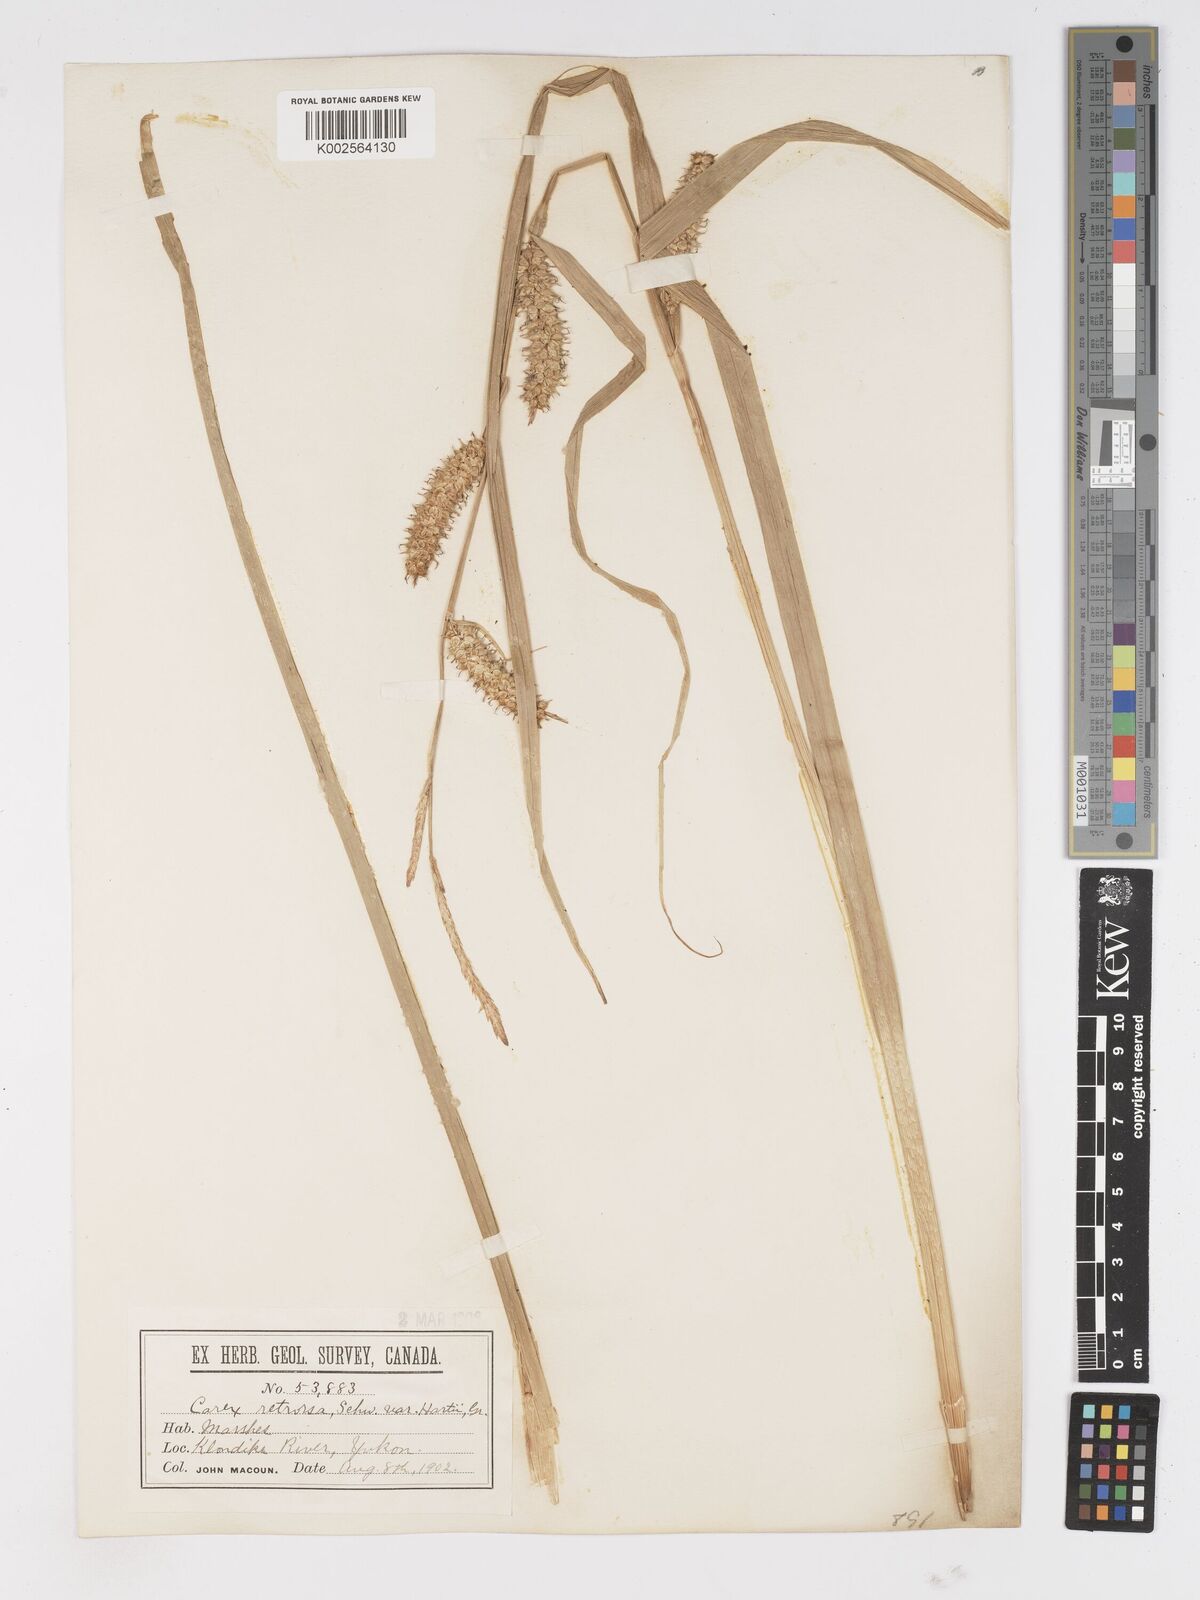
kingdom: Plantae
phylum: Tracheophyta
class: Liliopsida
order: Poales
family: Cyperaceae
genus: Carex
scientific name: Carex retrorsa
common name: Knot-sheath sedge
